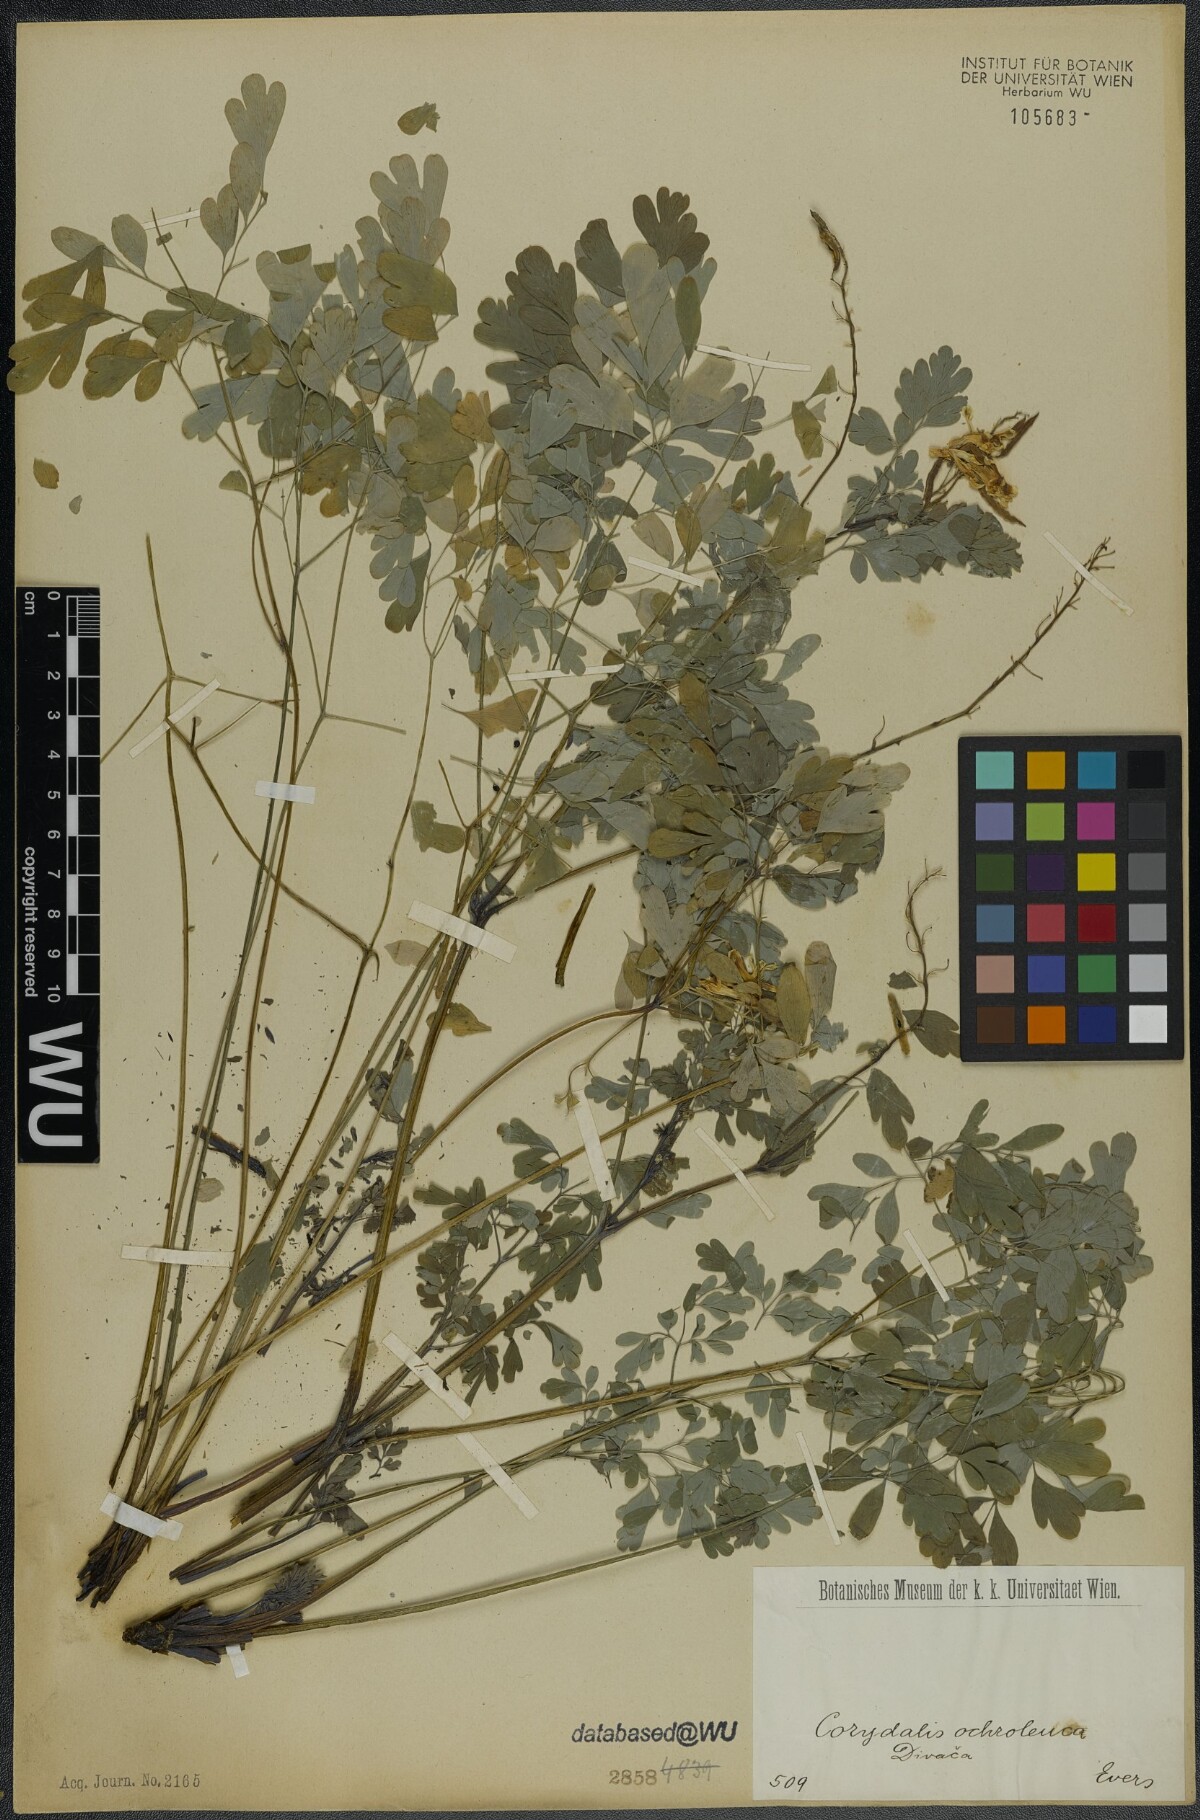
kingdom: Plantae
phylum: Tracheophyta
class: Magnoliopsida
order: Ranunculales
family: Papaveraceae
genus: Pseudofumaria
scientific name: Pseudofumaria alba
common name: Pale corydalis
